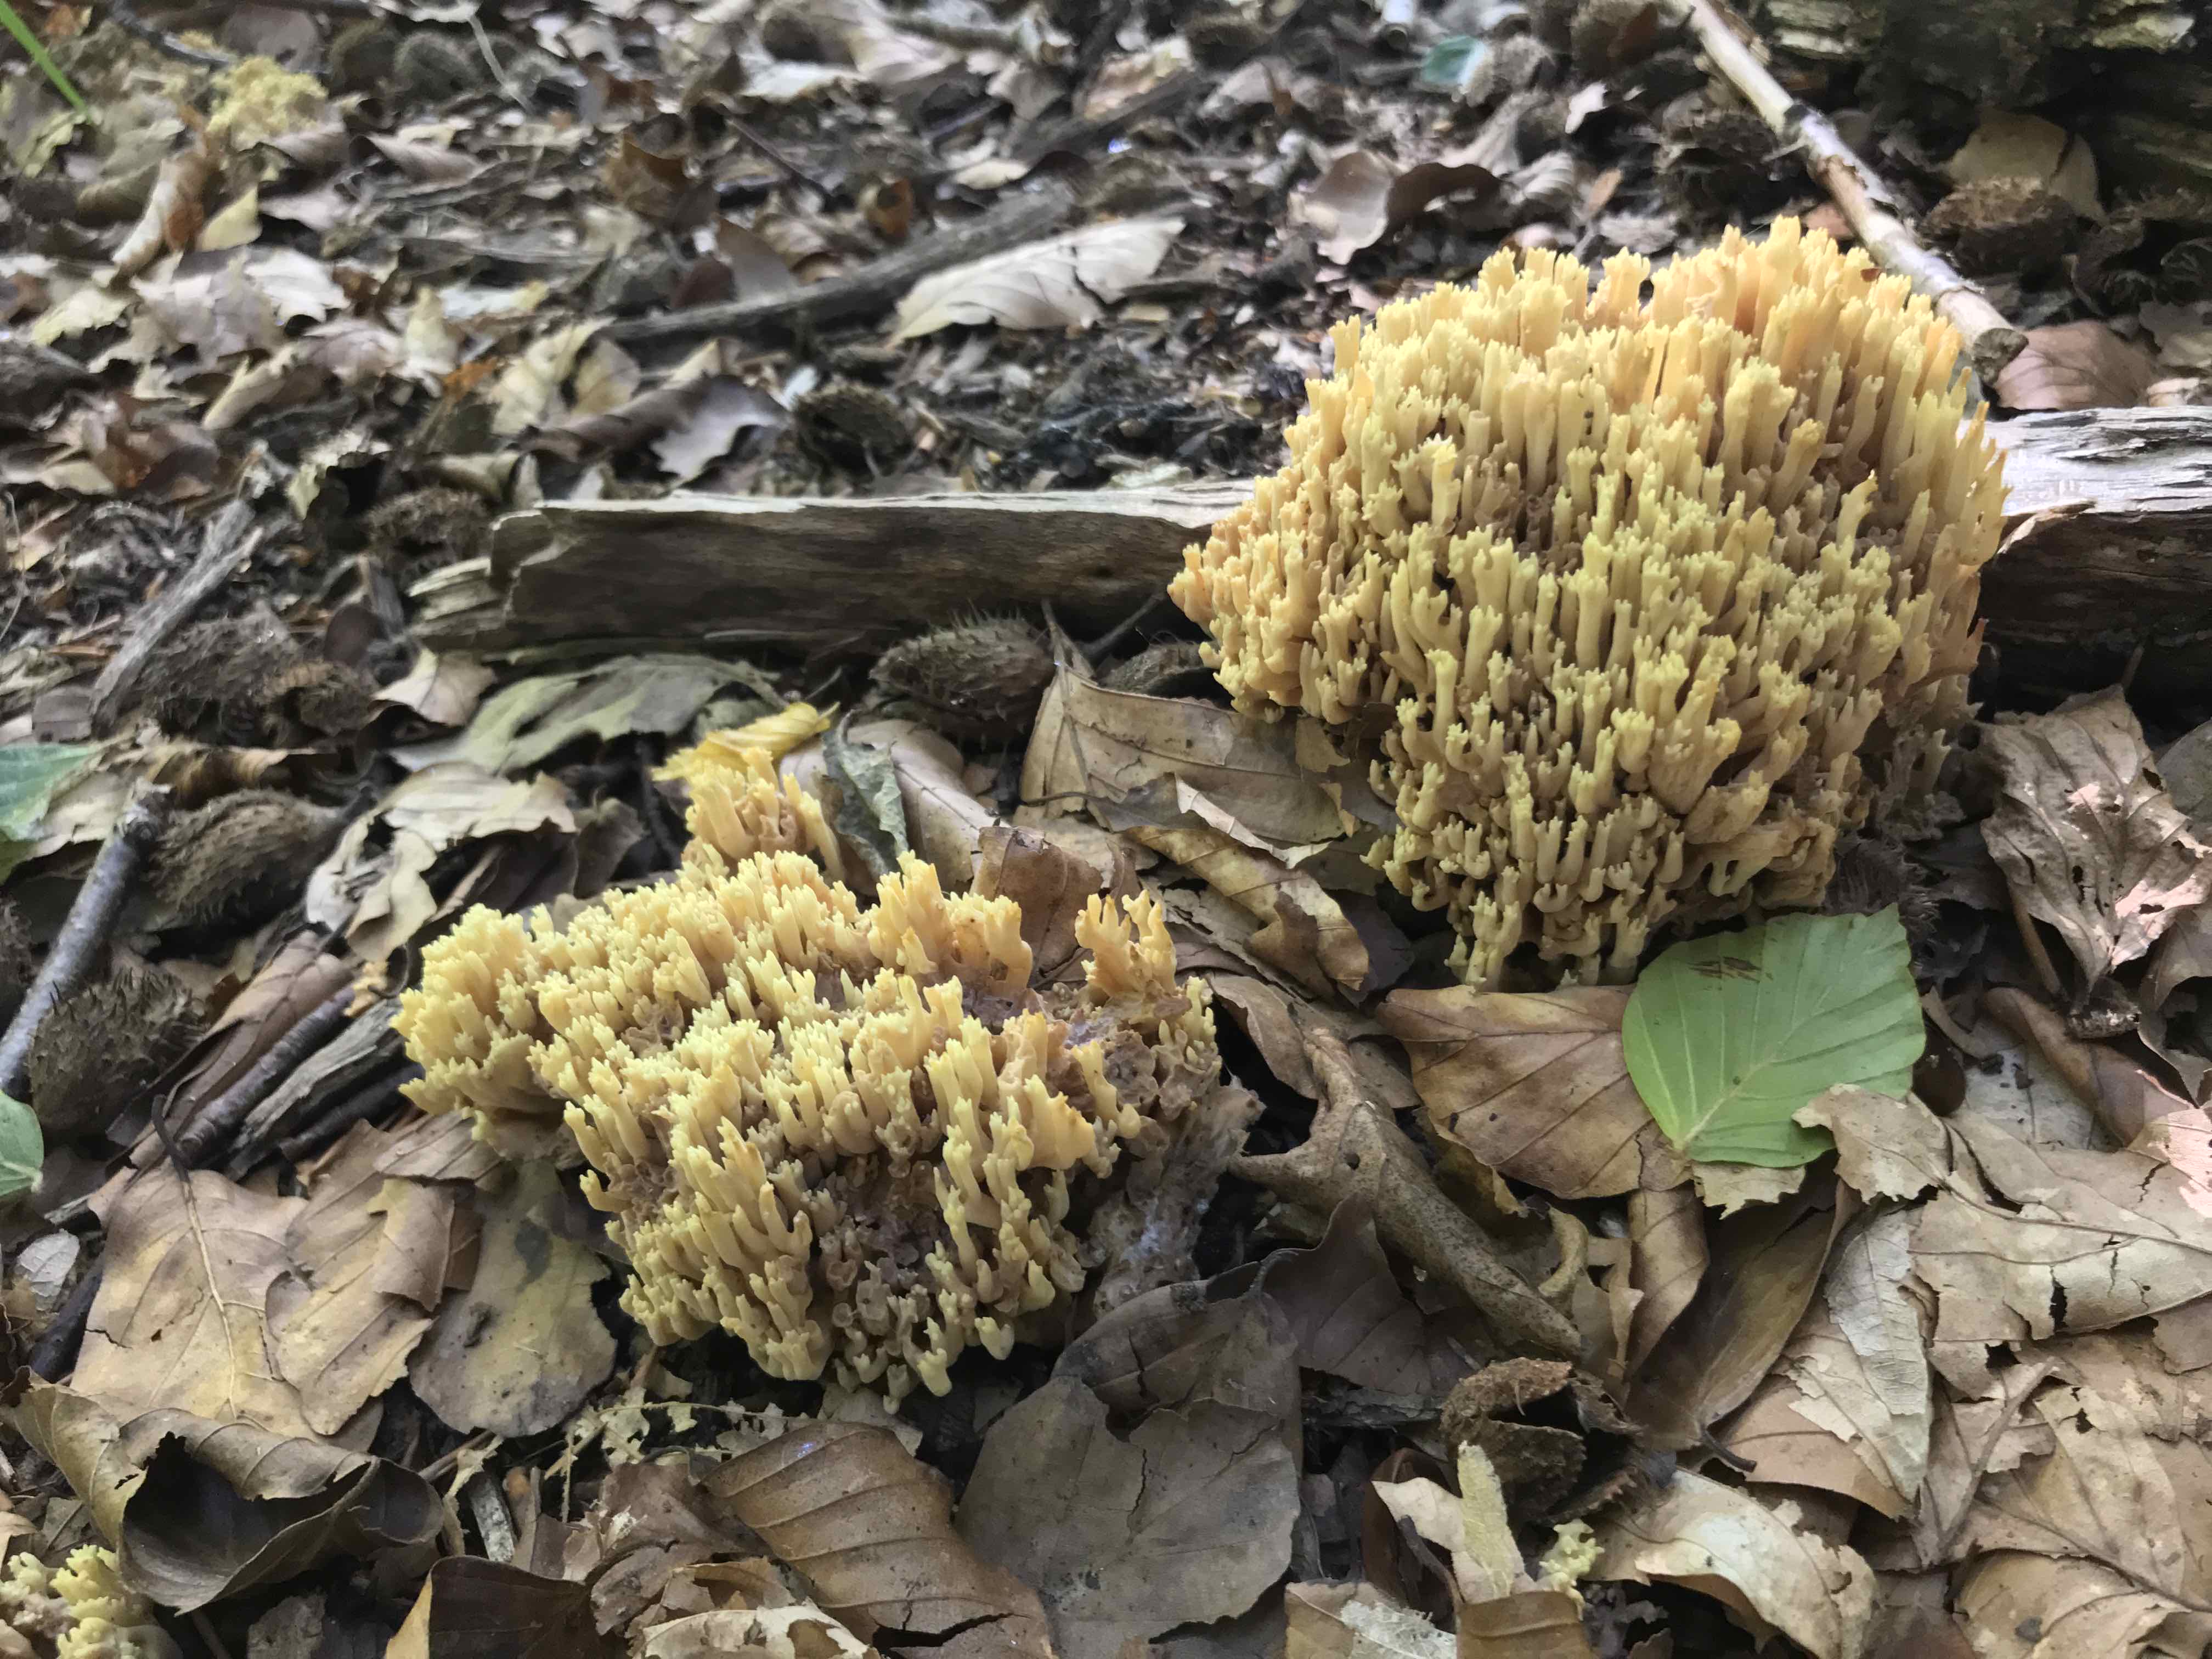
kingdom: Fungi
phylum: Basidiomycota
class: Agaricomycetes
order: Gomphales
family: Gomphaceae
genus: Ramaria
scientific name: Ramaria stricta
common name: rank koralsvamp
